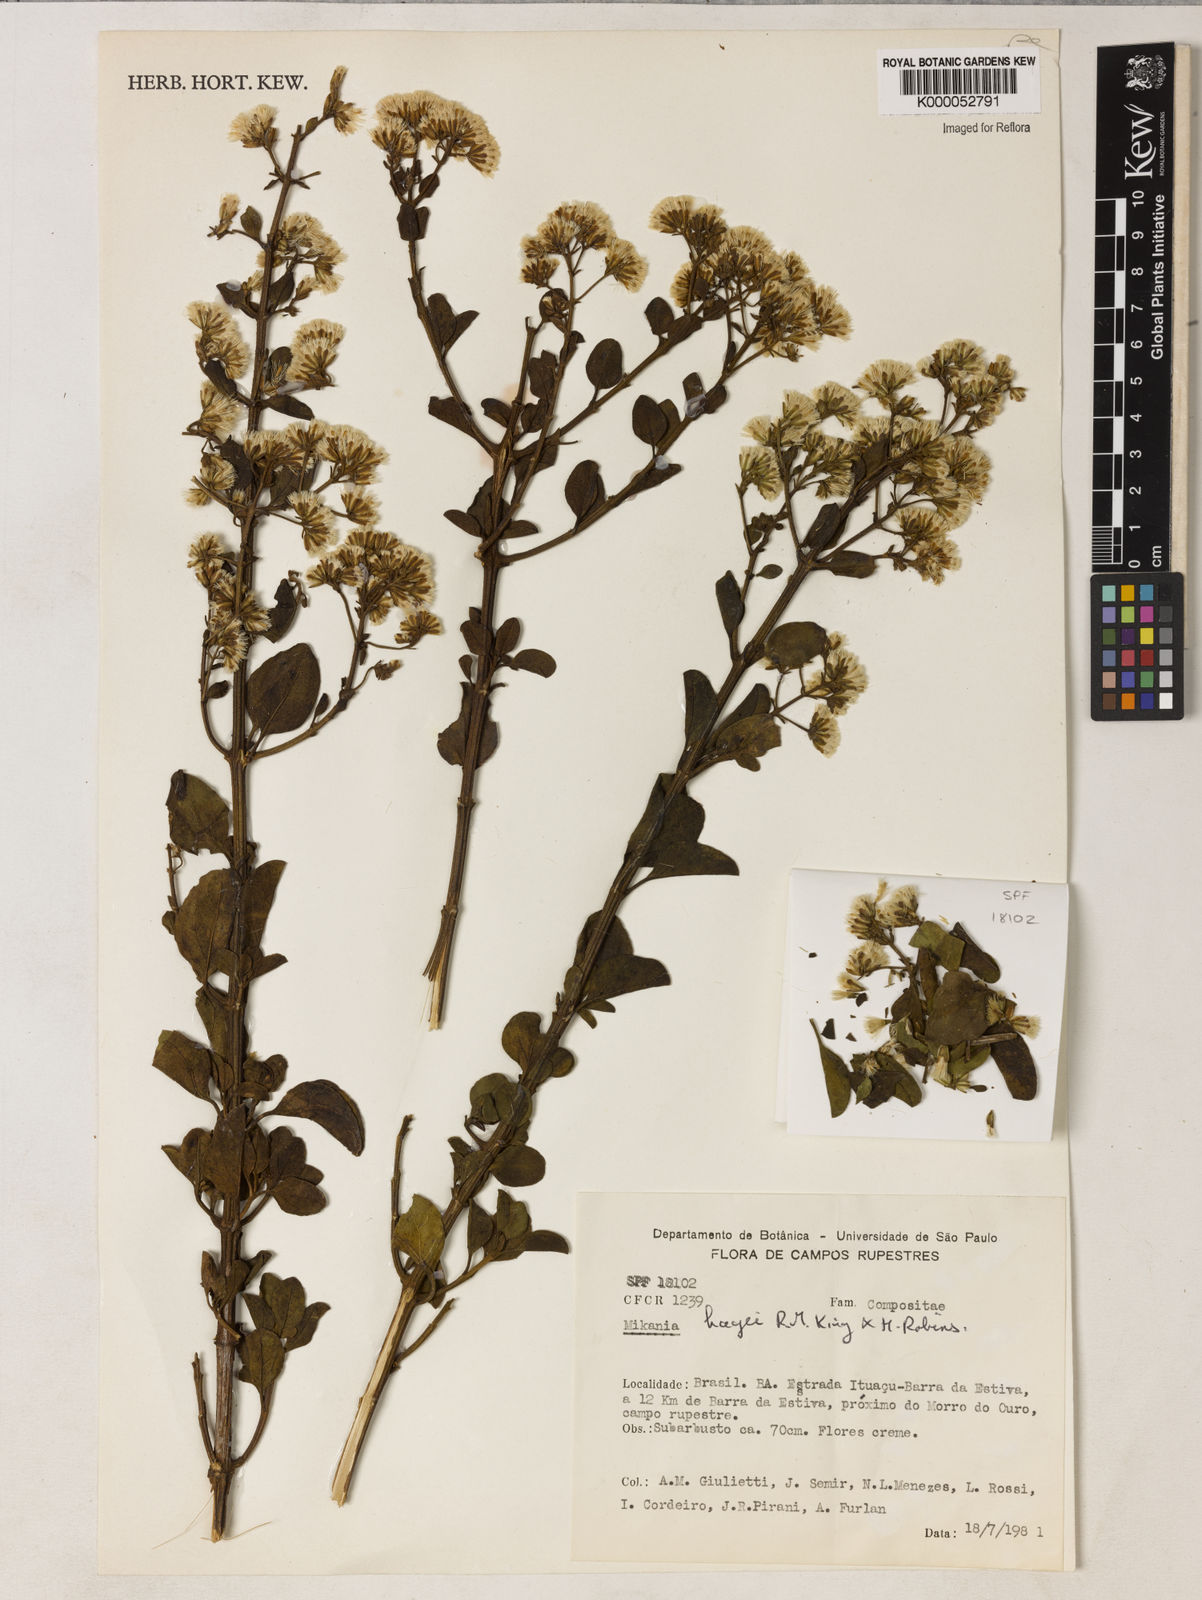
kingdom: Plantae
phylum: Tracheophyta
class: Magnoliopsida
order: Asterales
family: Asteraceae
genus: Mikania
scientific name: Mikania hagei
